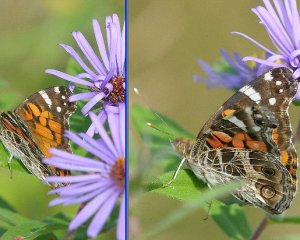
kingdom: Animalia
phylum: Arthropoda
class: Insecta
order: Lepidoptera
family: Nymphalidae
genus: Vanessa
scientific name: Vanessa virginiensis
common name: American Lady
